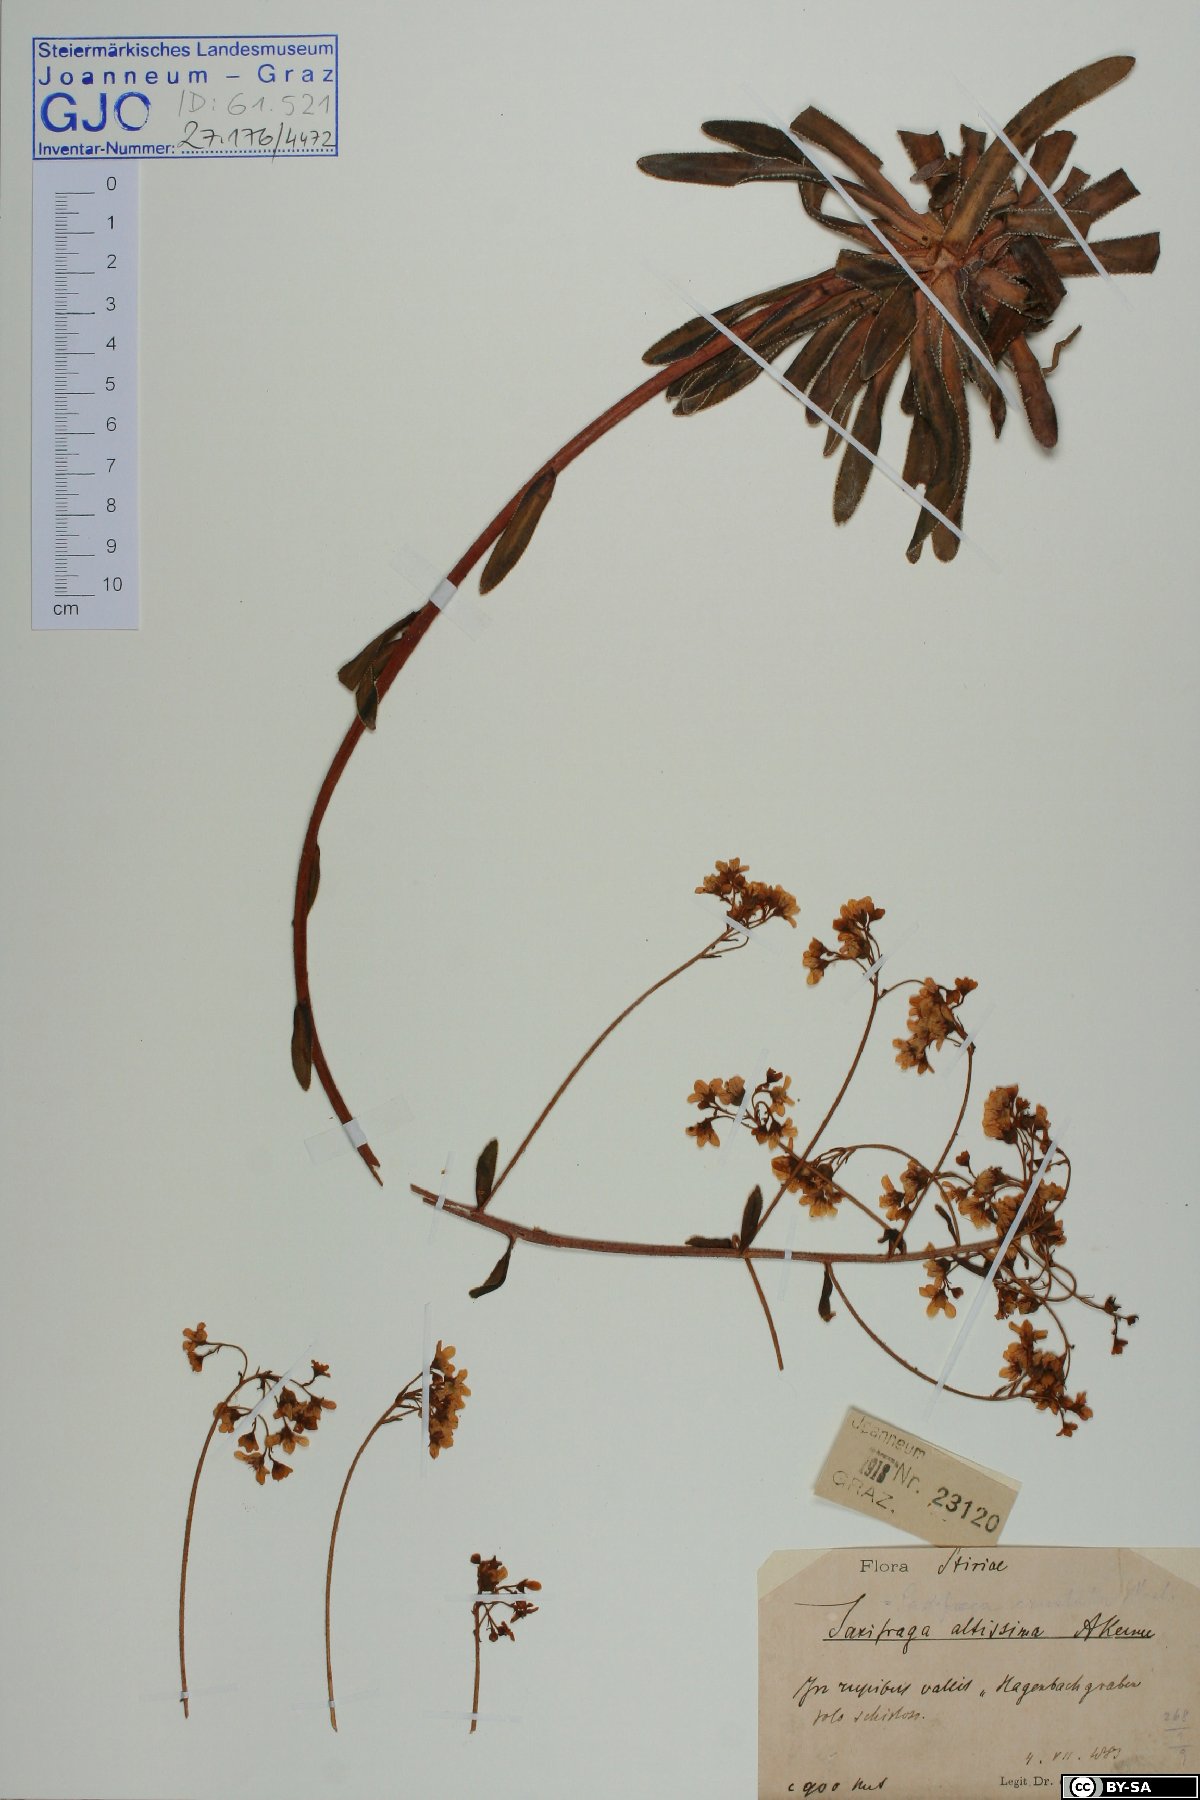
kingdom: Plantae
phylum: Tracheophyta
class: Magnoliopsida
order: Saxifragales
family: Saxifragaceae
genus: Saxifraga
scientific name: Saxifraga hostii
